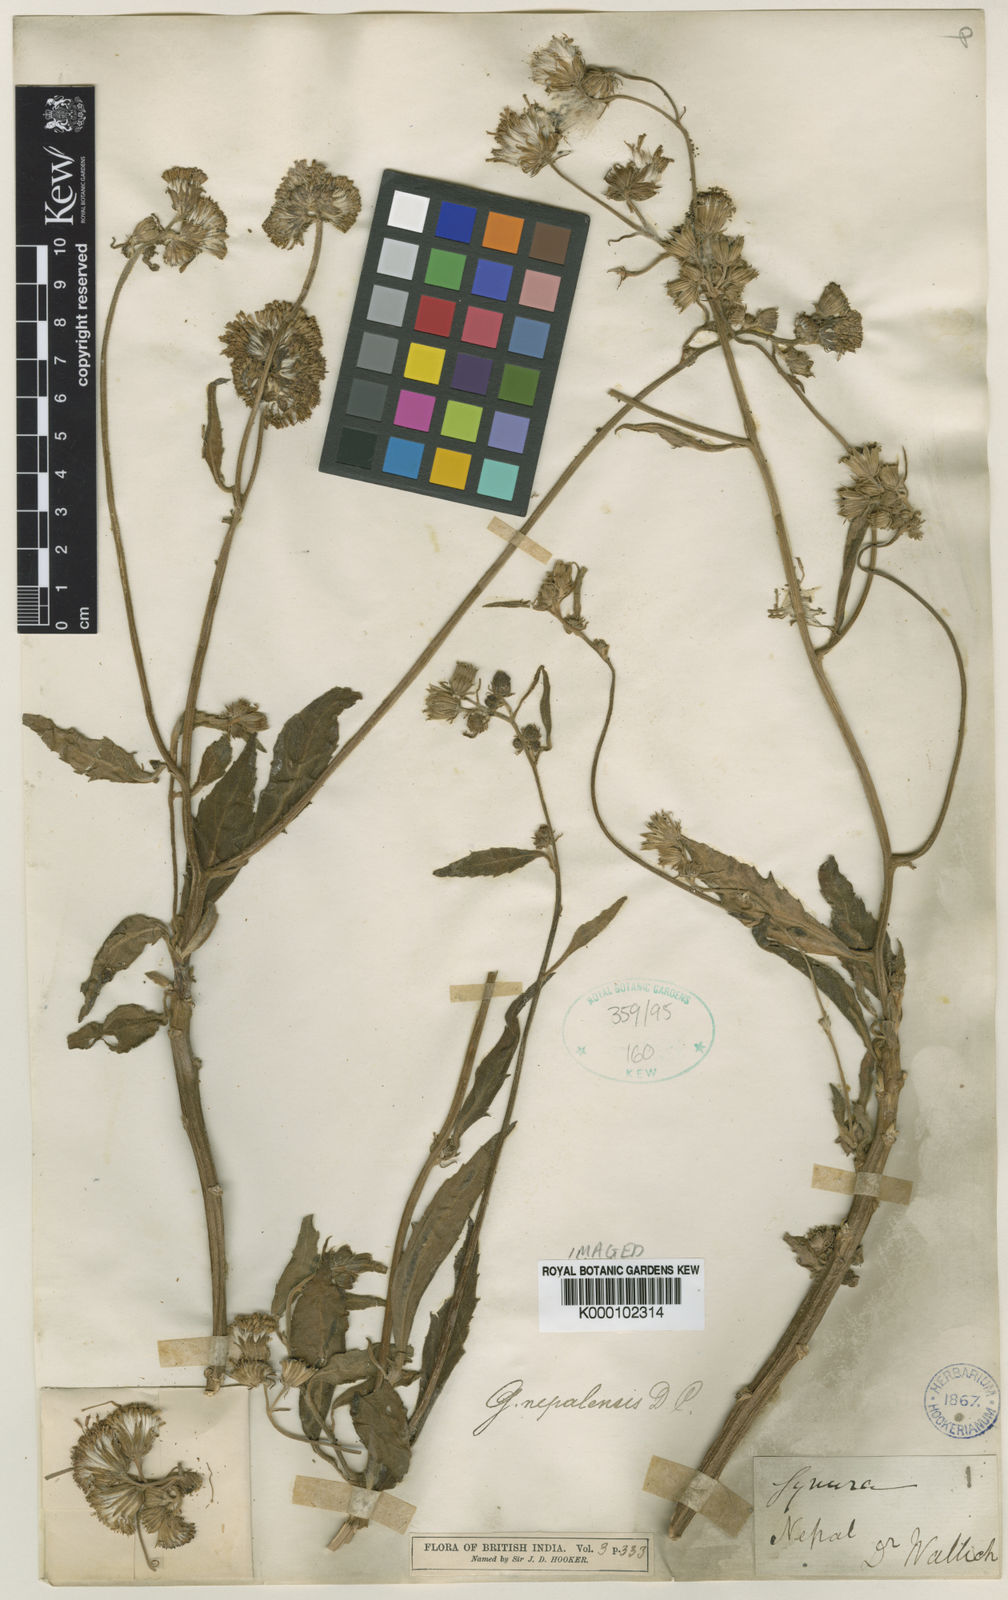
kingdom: Plantae
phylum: Tracheophyta
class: Magnoliopsida
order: Asterales
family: Asteraceae
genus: Gynura
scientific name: Gynura
